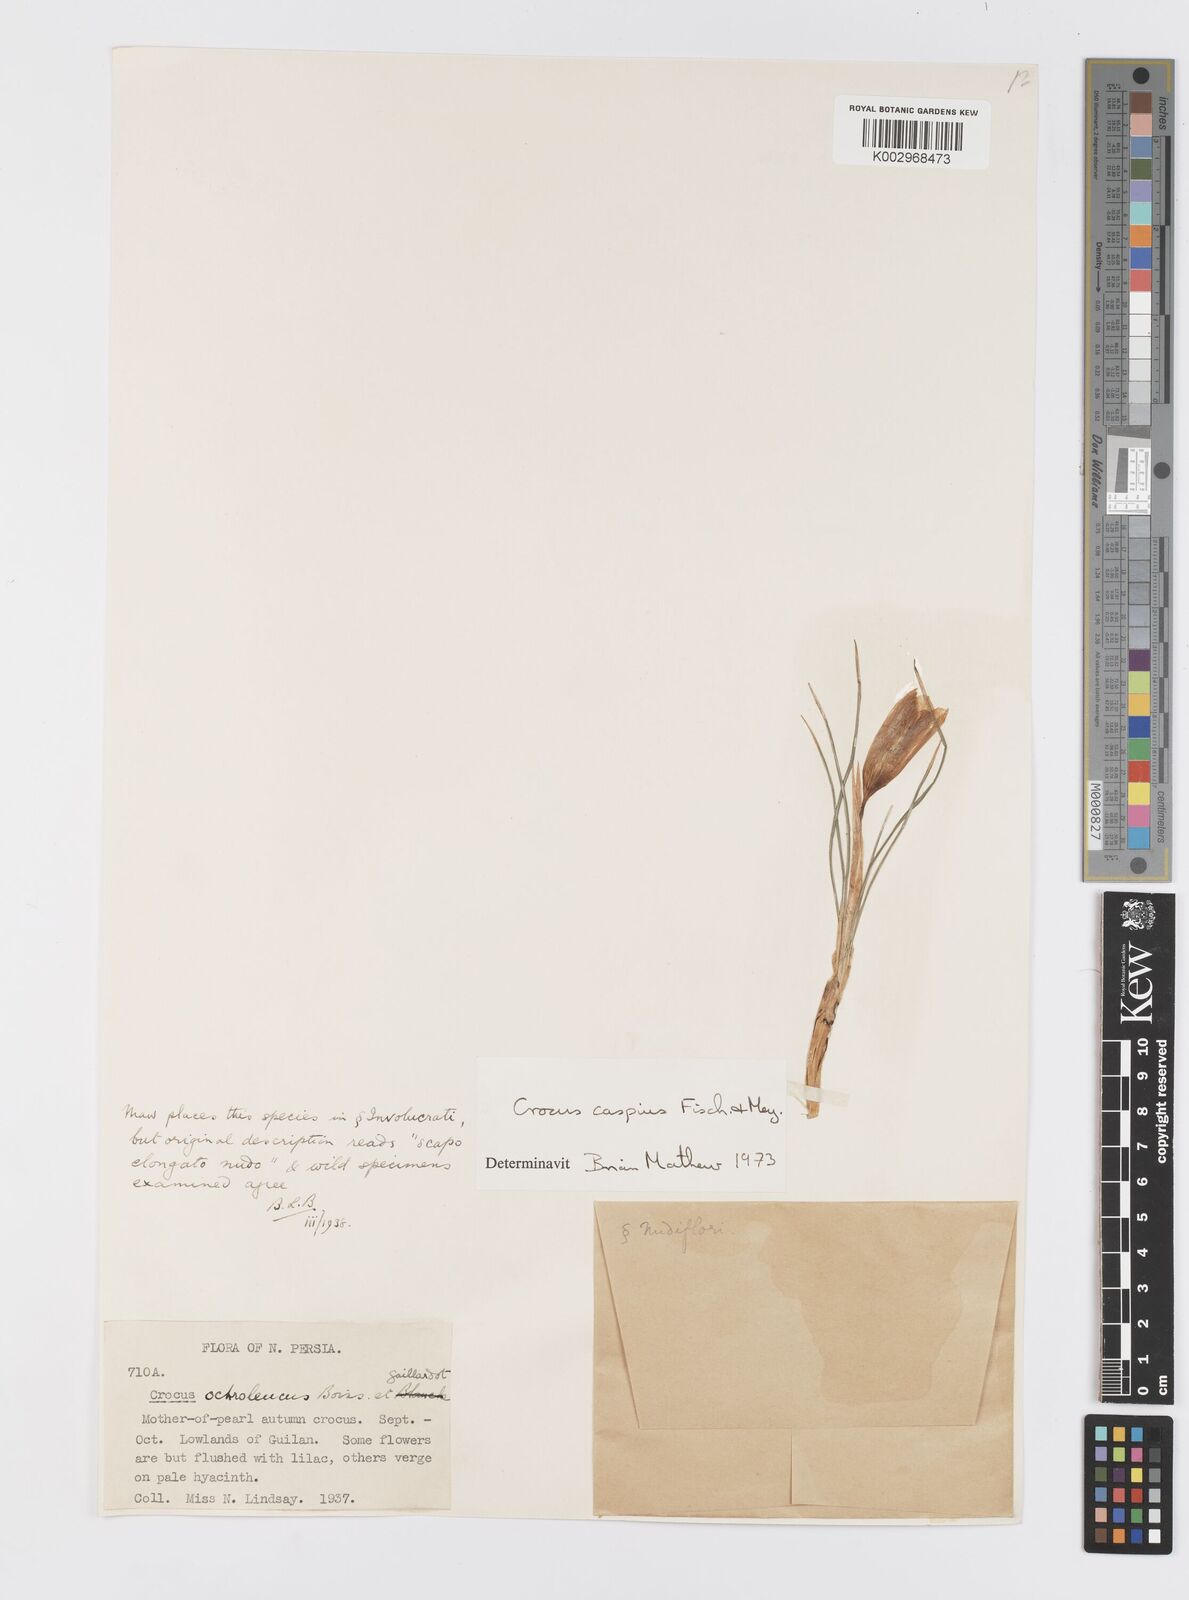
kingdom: Plantae
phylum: Tracheophyta
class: Liliopsida
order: Asparagales
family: Iridaceae
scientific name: Iridaceae
